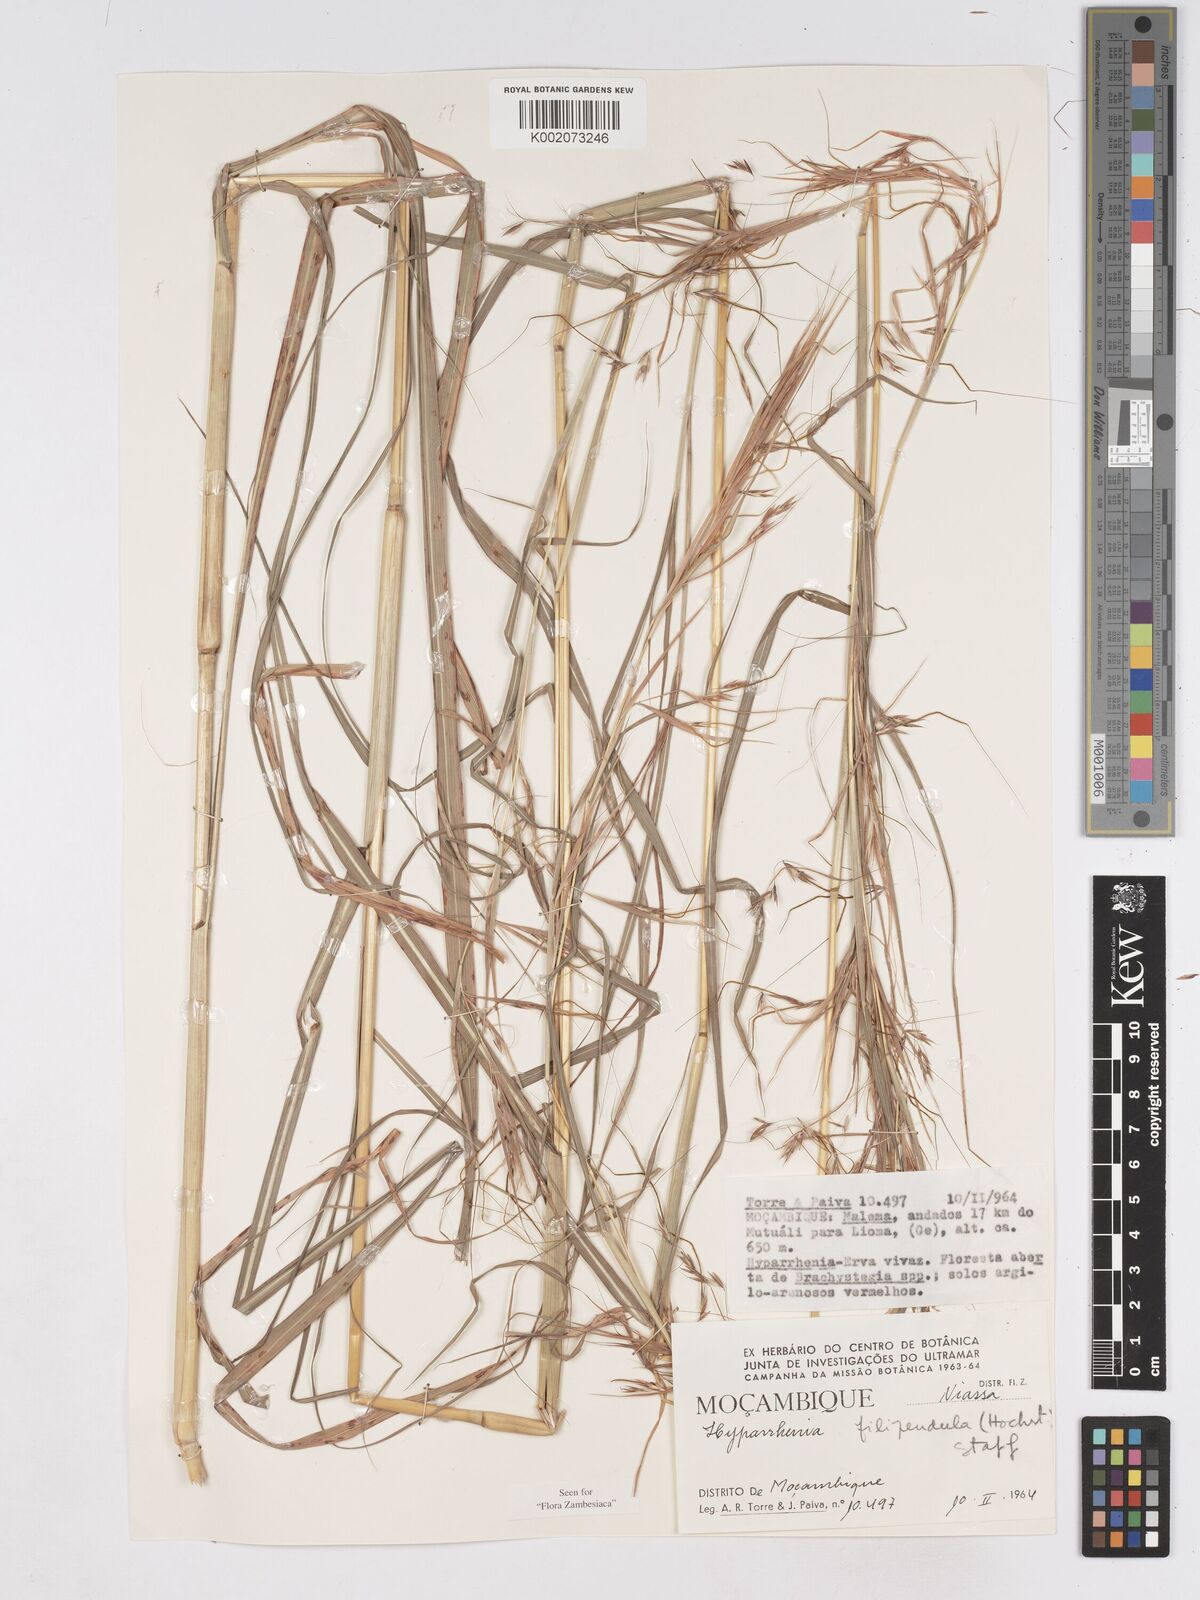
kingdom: Plantae
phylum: Tracheophyta
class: Liliopsida
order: Poales
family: Poaceae
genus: Hyparrhenia
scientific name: Hyparrhenia filipendula
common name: Tambookie grass
